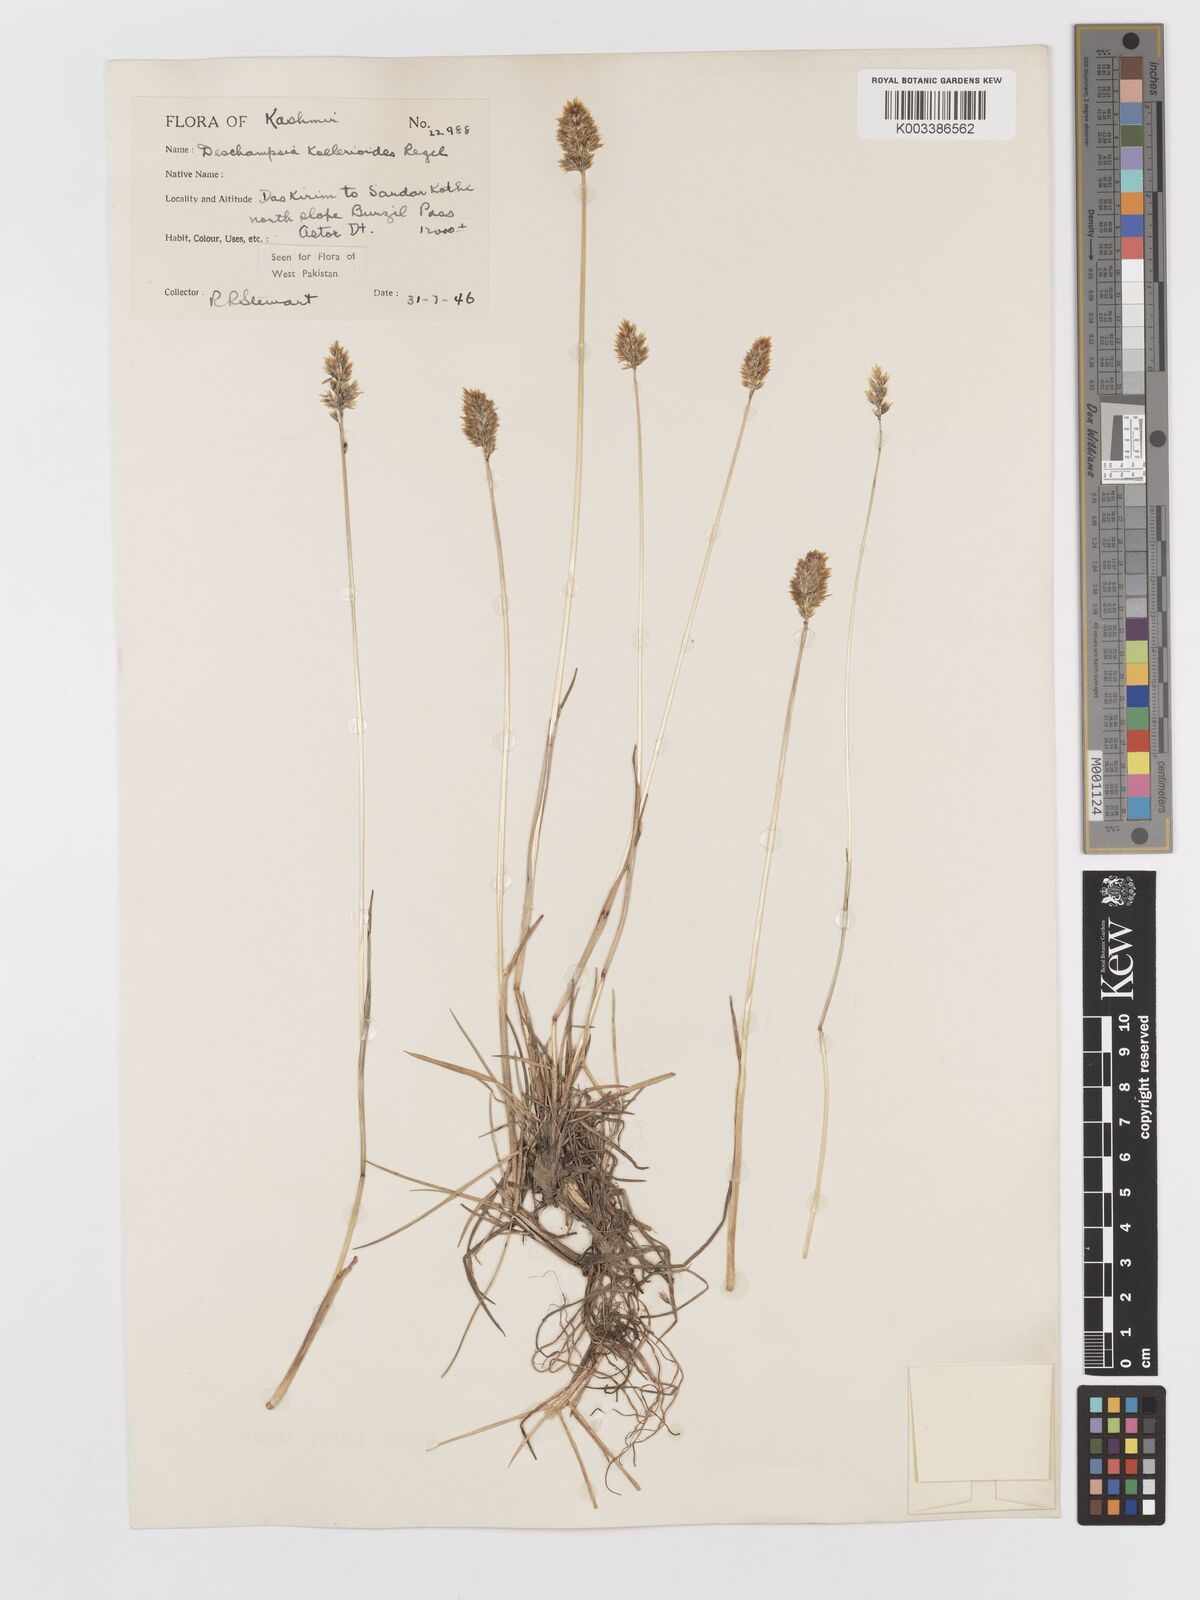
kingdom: Plantae
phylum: Tracheophyta
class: Liliopsida
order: Poales
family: Poaceae
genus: Deschampsia
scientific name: Deschampsia koelerioides
